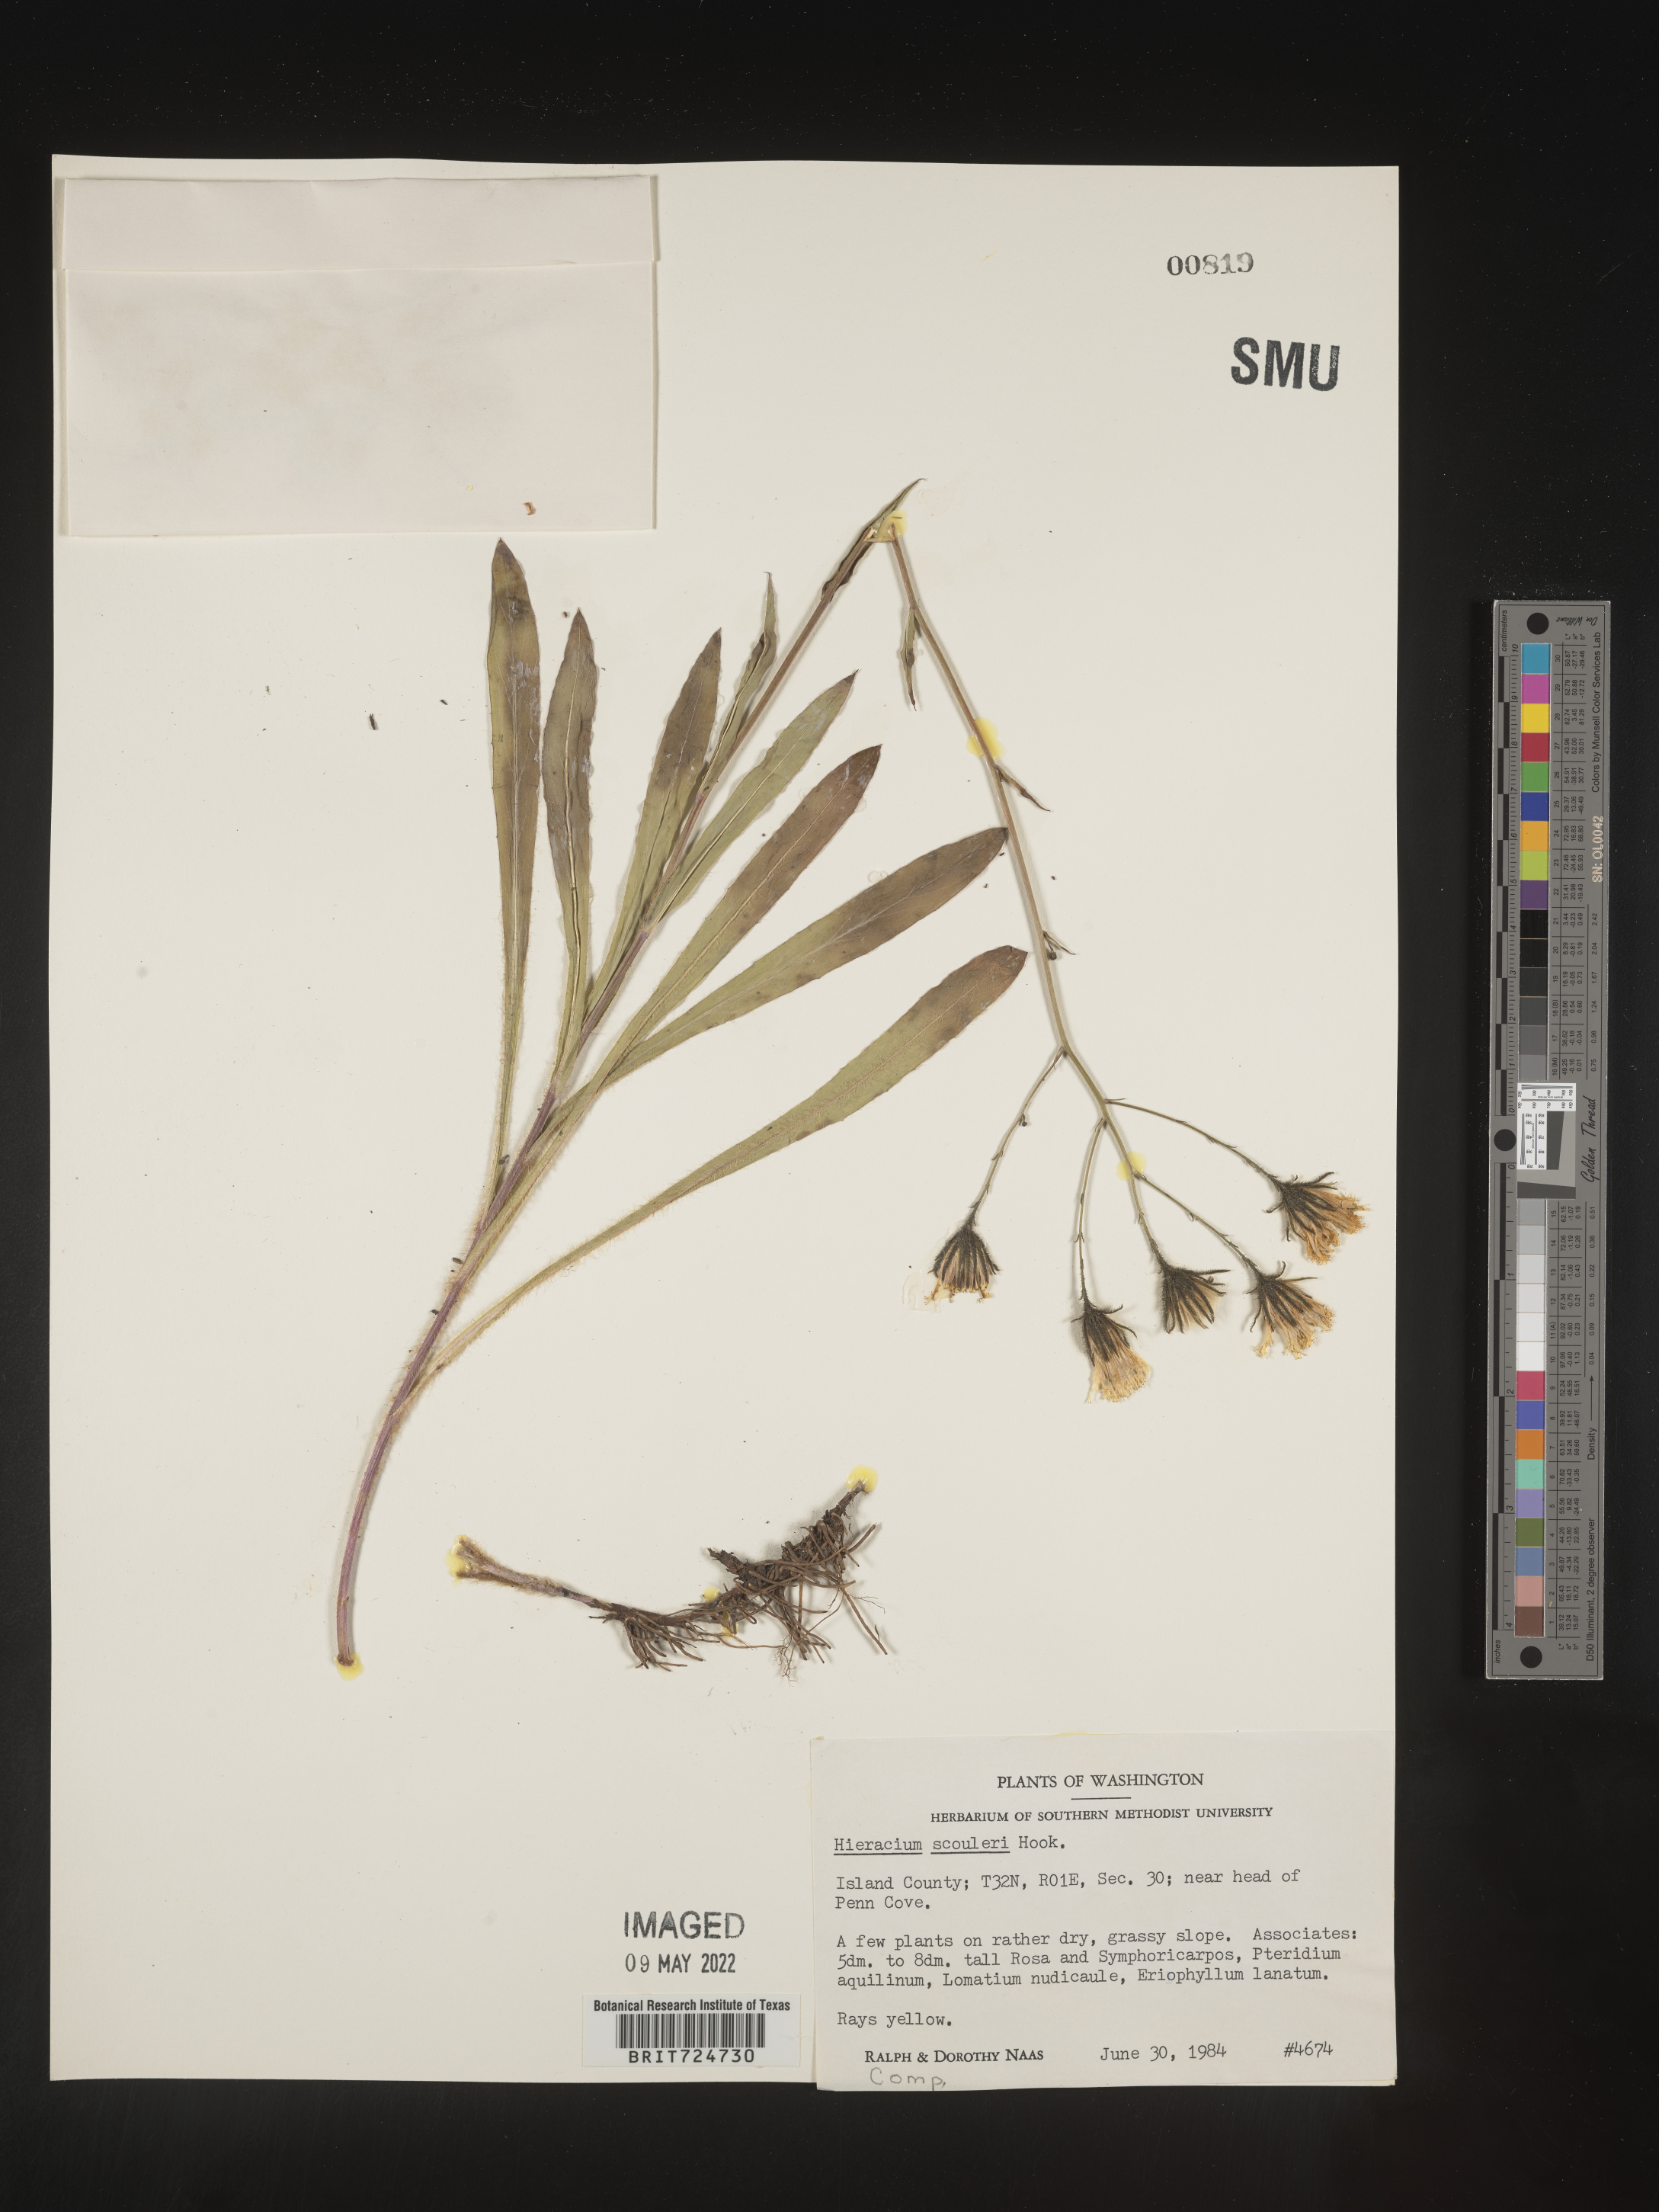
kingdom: Plantae
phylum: Tracheophyta
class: Magnoliopsida
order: Asterales
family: Asteraceae
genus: Hieracium
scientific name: Hieracium scabrum
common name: Rough hawkweed
